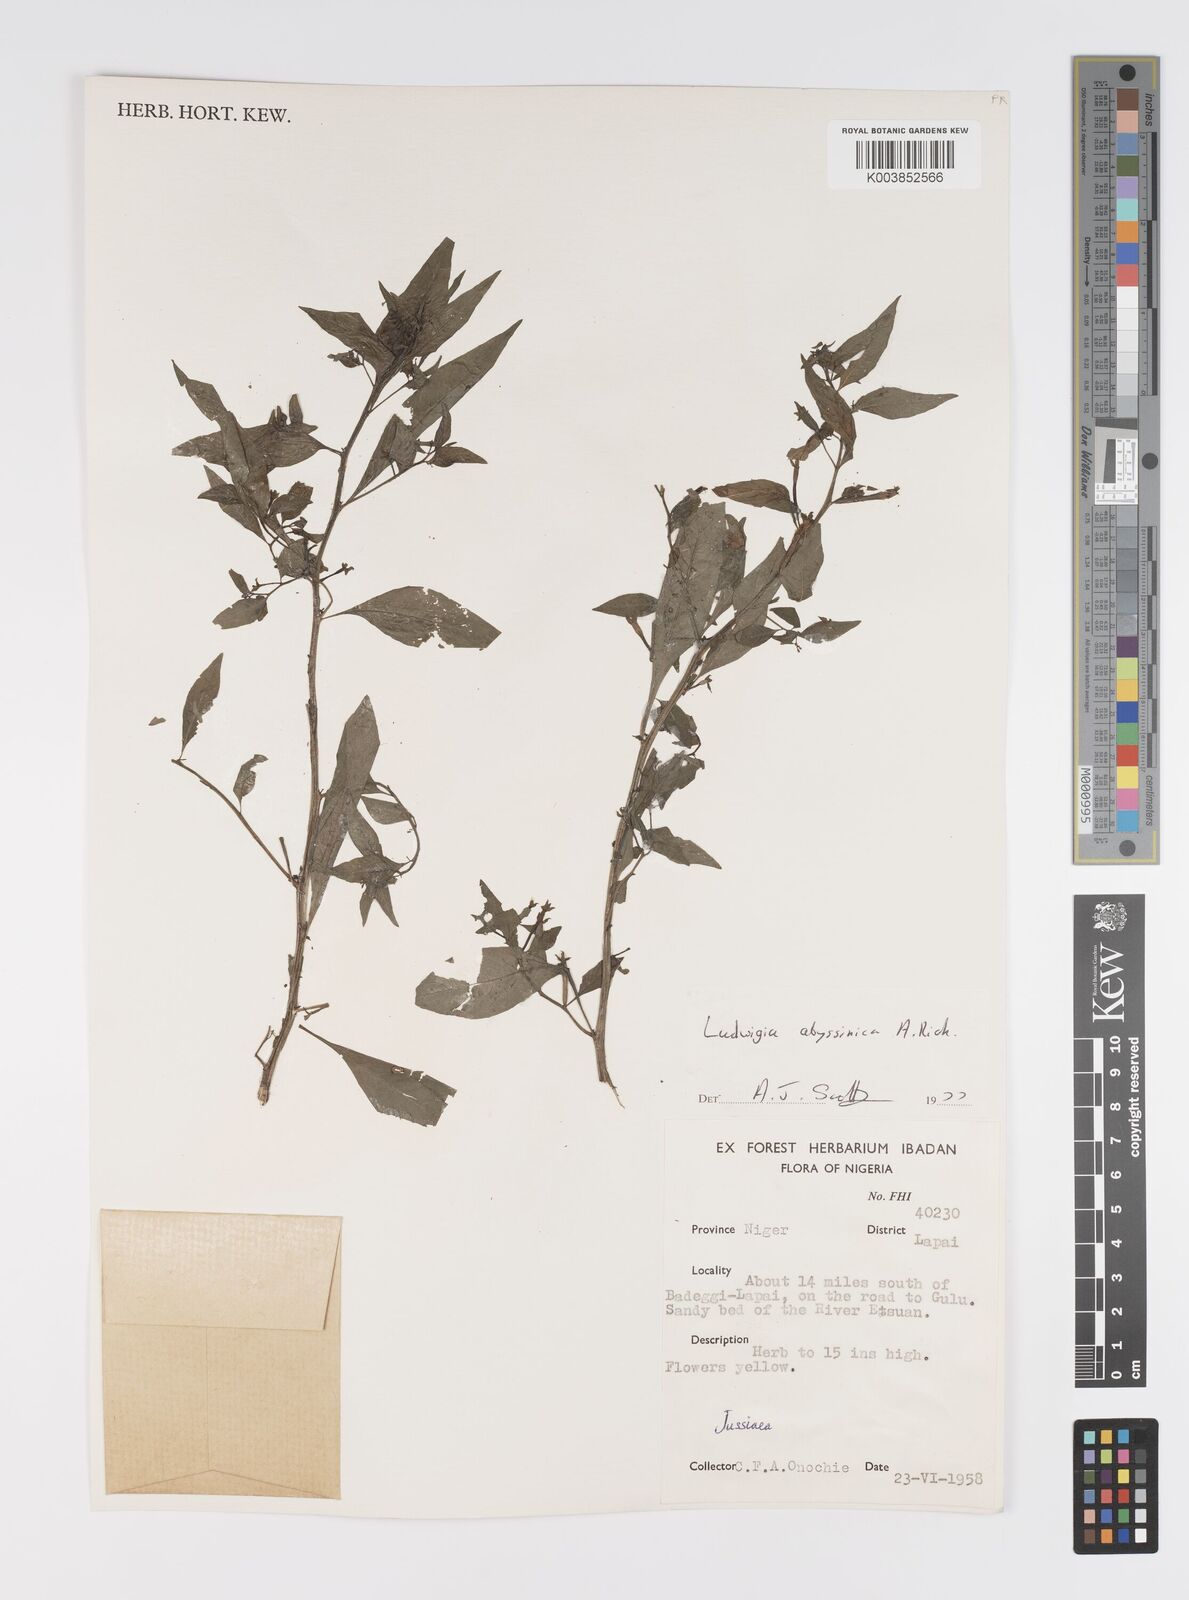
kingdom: Plantae
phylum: Tracheophyta
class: Magnoliopsida
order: Myrtales
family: Onagraceae
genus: Ludwigia
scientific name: Ludwigia abyssinica
